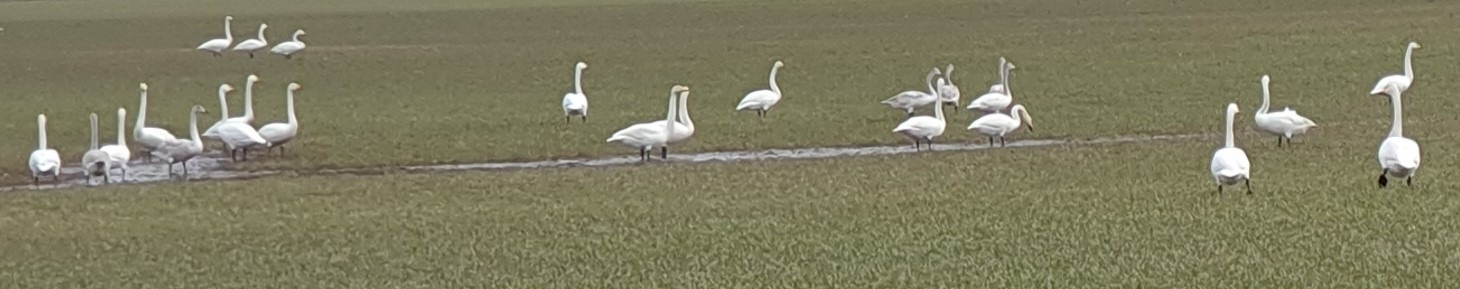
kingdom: Animalia
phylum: Chordata
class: Aves
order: Anseriformes
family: Anatidae
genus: Cygnus
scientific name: Cygnus cygnus
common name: Sangsvane
